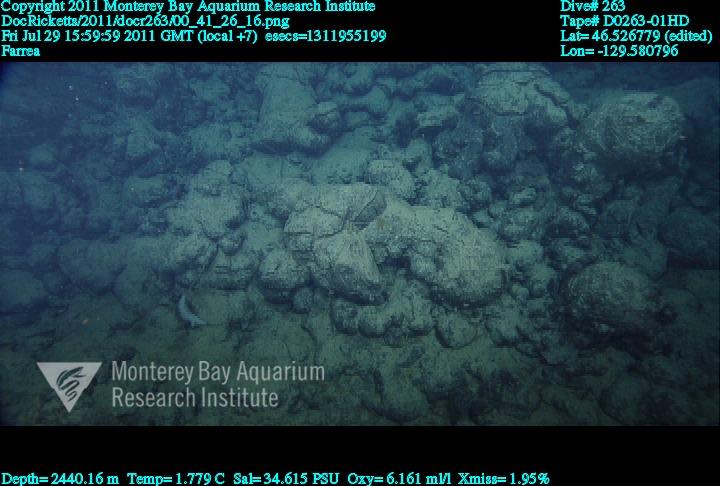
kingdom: Animalia
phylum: Porifera
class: Hexactinellida
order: Sceptrulophora
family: Farreidae
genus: Farrea
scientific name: Farrea
